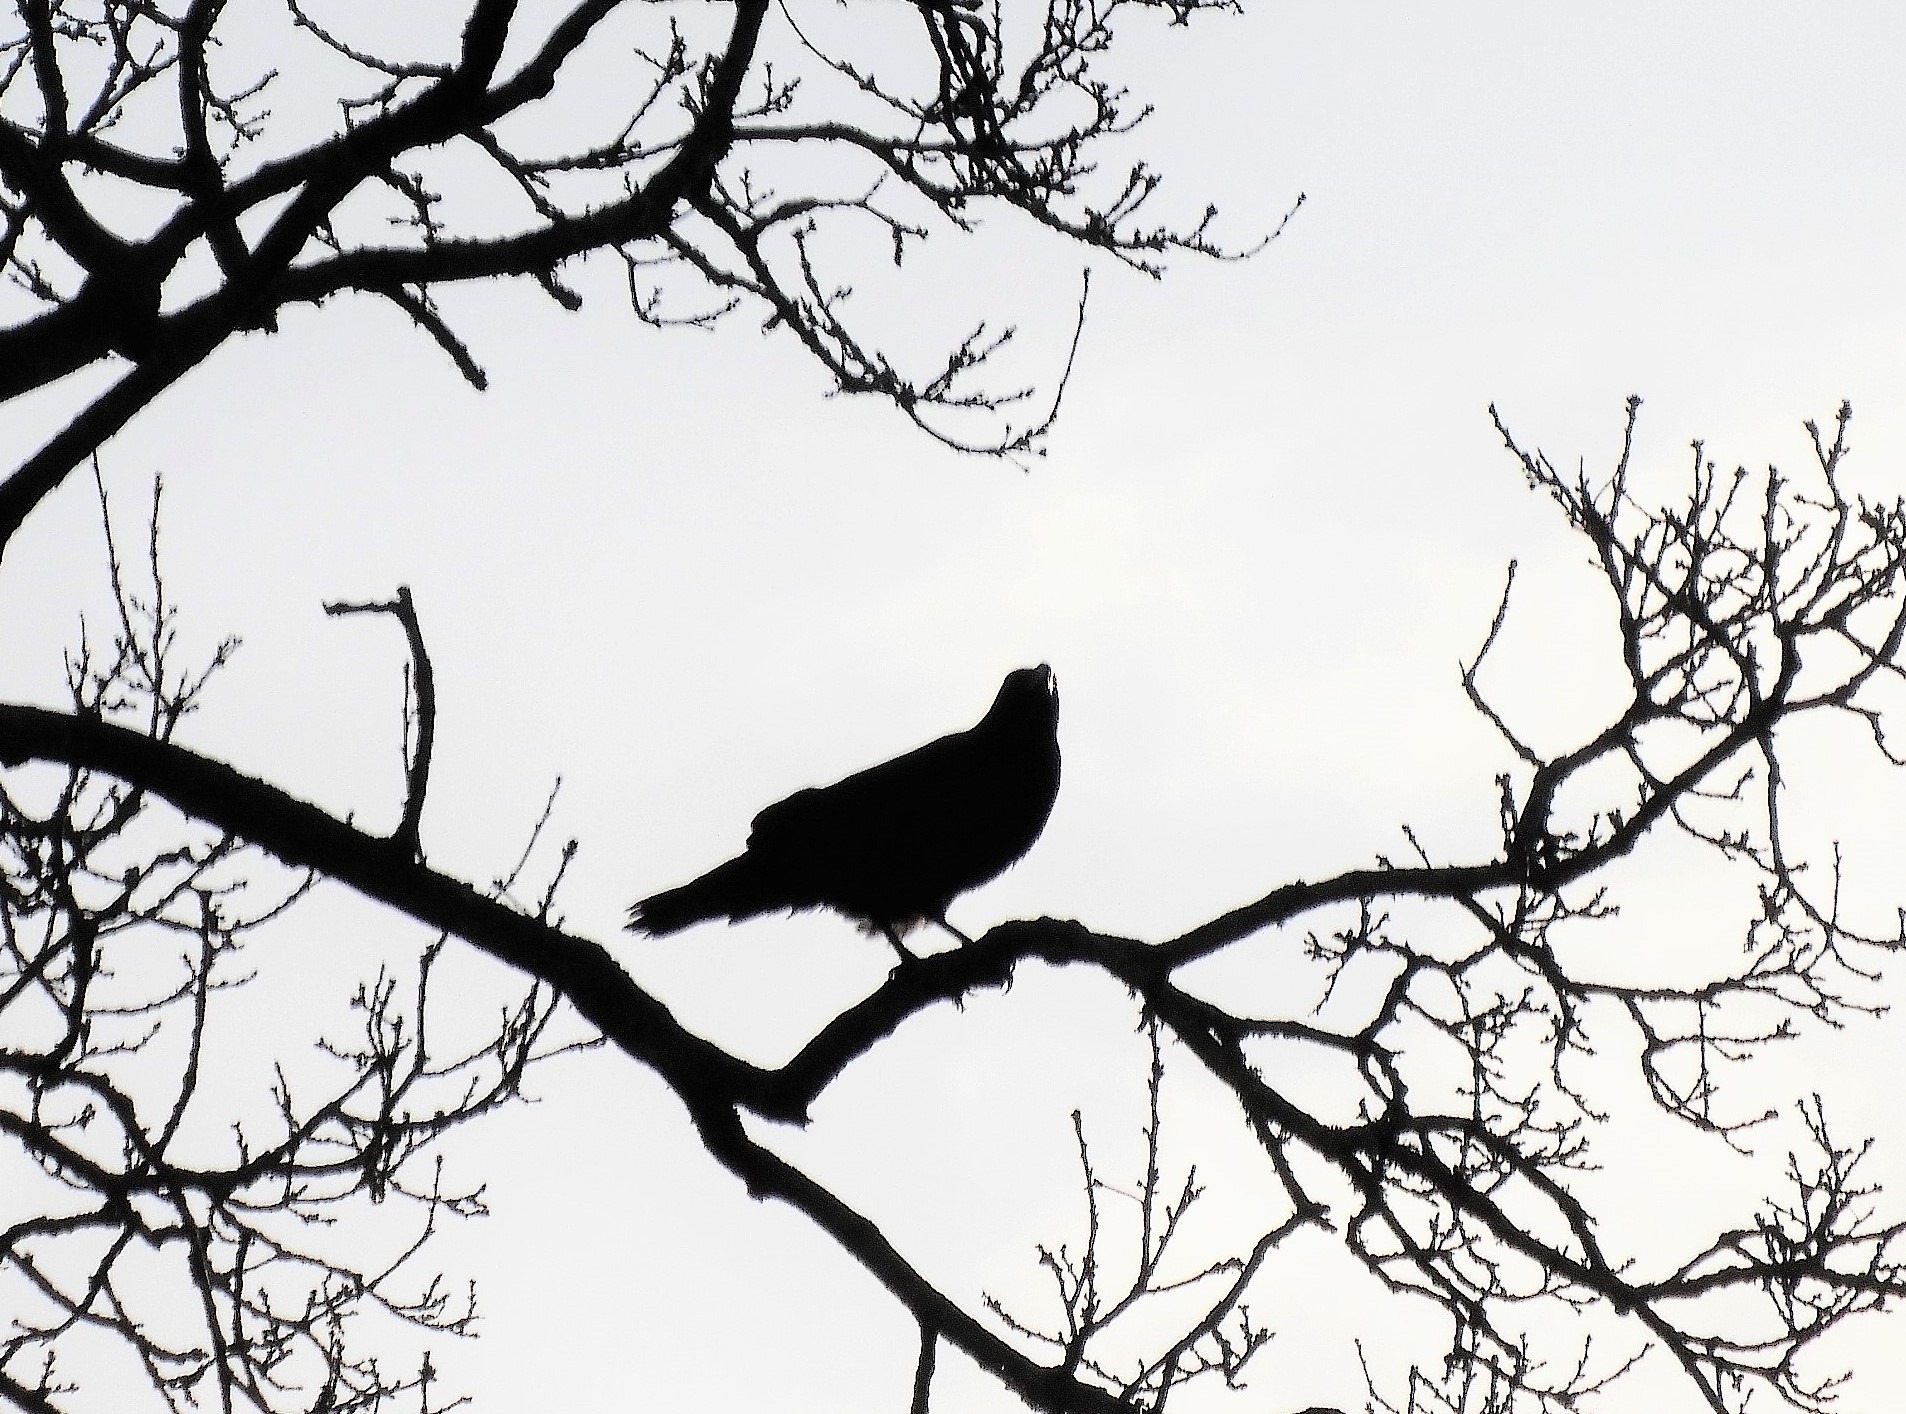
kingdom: Animalia
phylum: Chordata
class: Aves
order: Passeriformes
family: Corvidae
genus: Corvus
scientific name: Corvus corax
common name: Ravn
